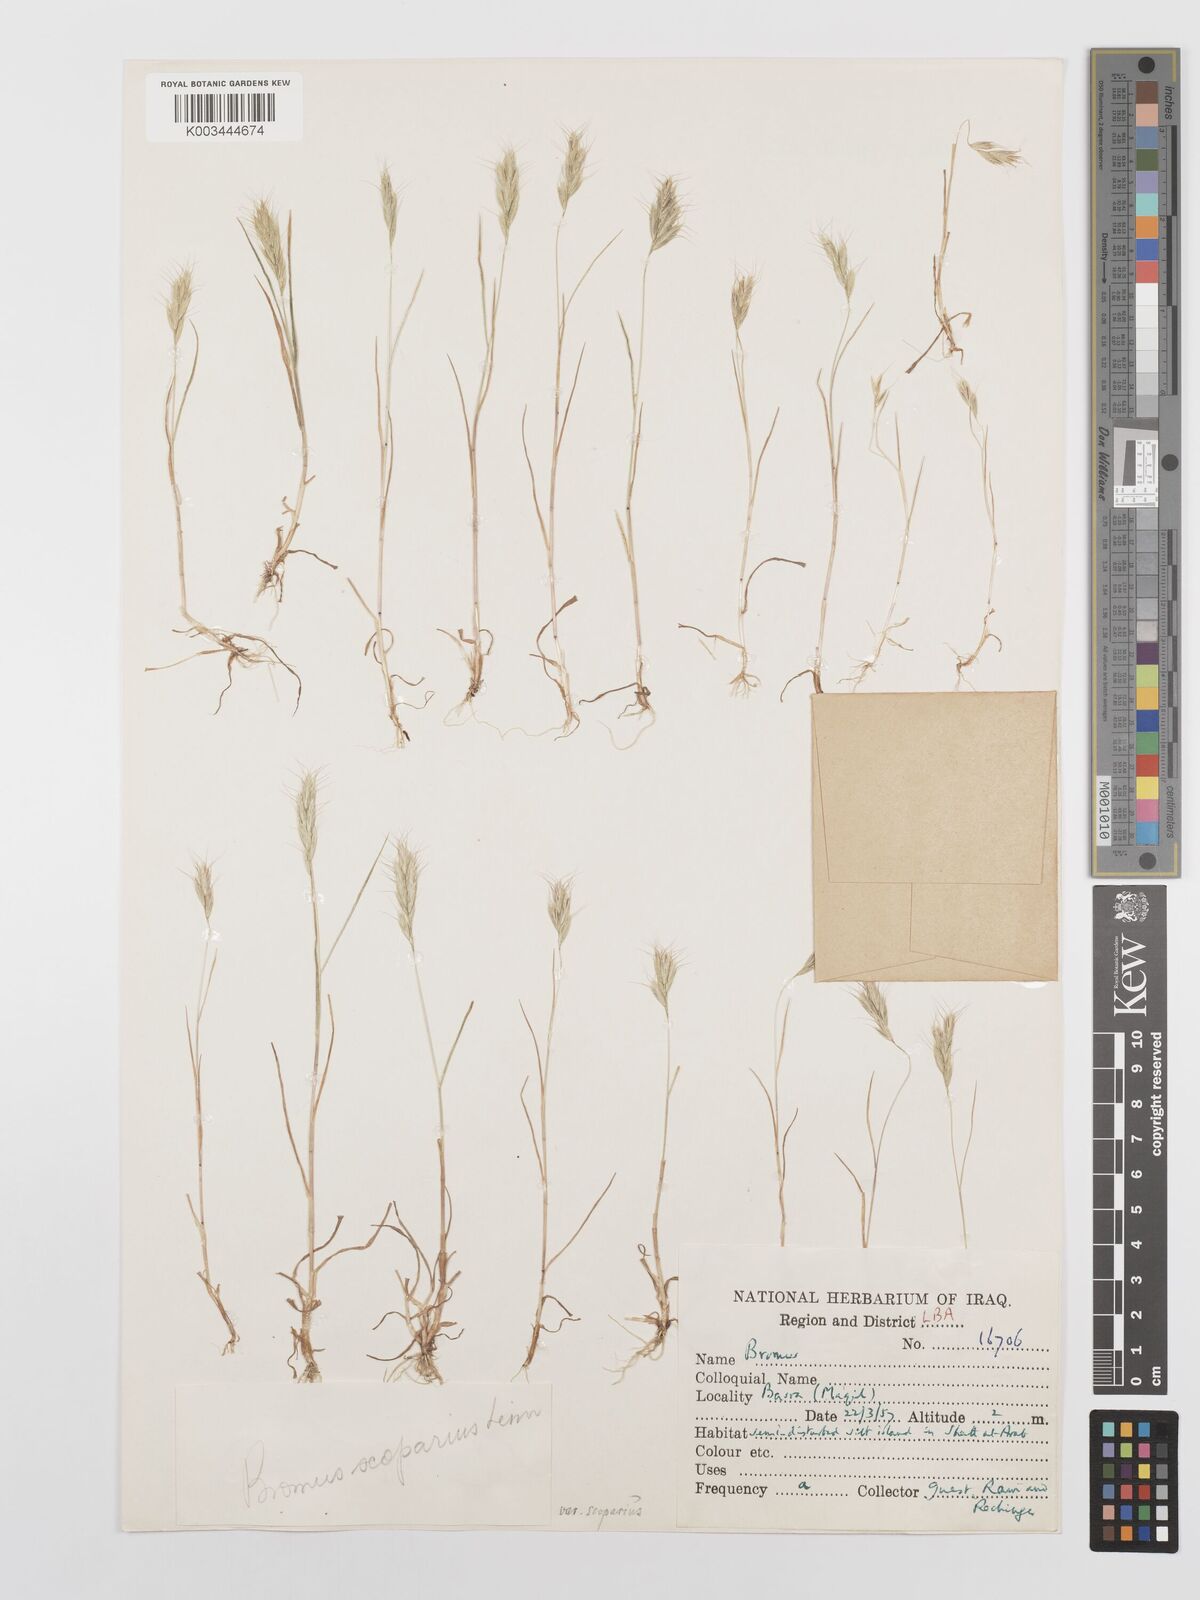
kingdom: Plantae
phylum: Tracheophyta
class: Liliopsida
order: Poales
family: Poaceae
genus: Bromus
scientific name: Bromus scoparius
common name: Broom brome
